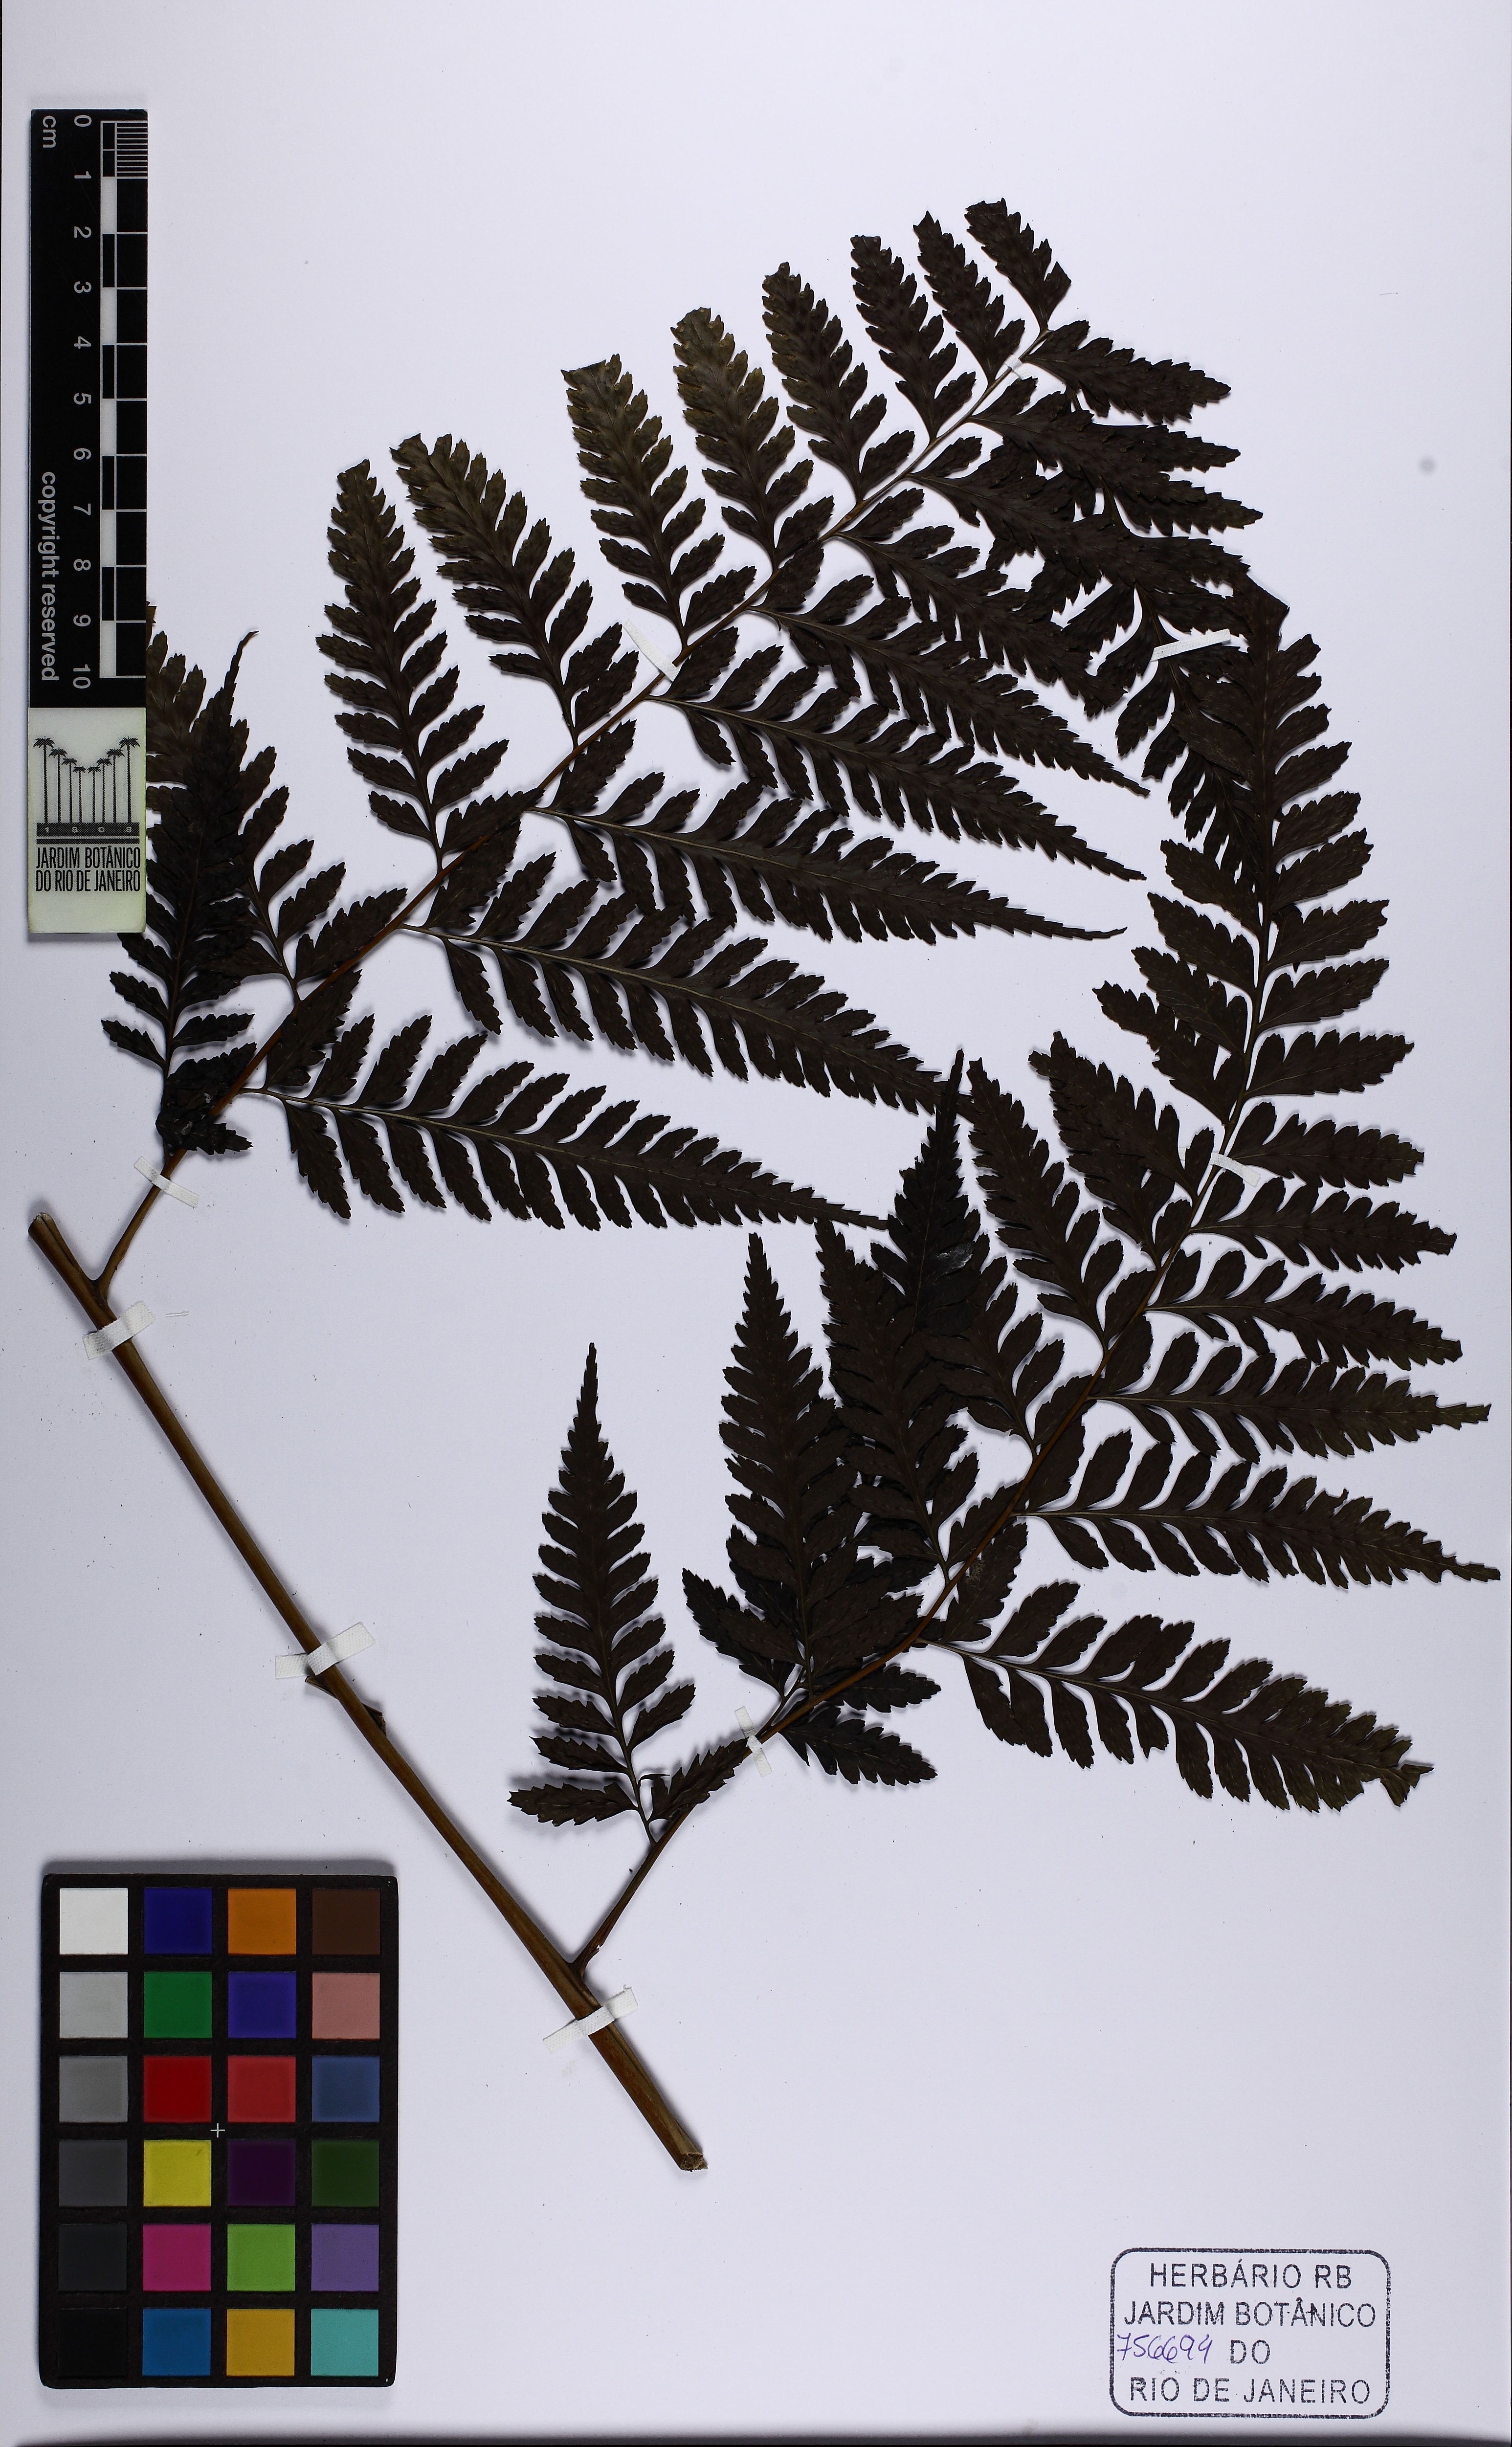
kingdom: Plantae
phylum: Tracheophyta
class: Polypodiopsida
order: Polypodiales
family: Saccolomataceae
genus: Saccoloma
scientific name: Saccoloma inaequale
